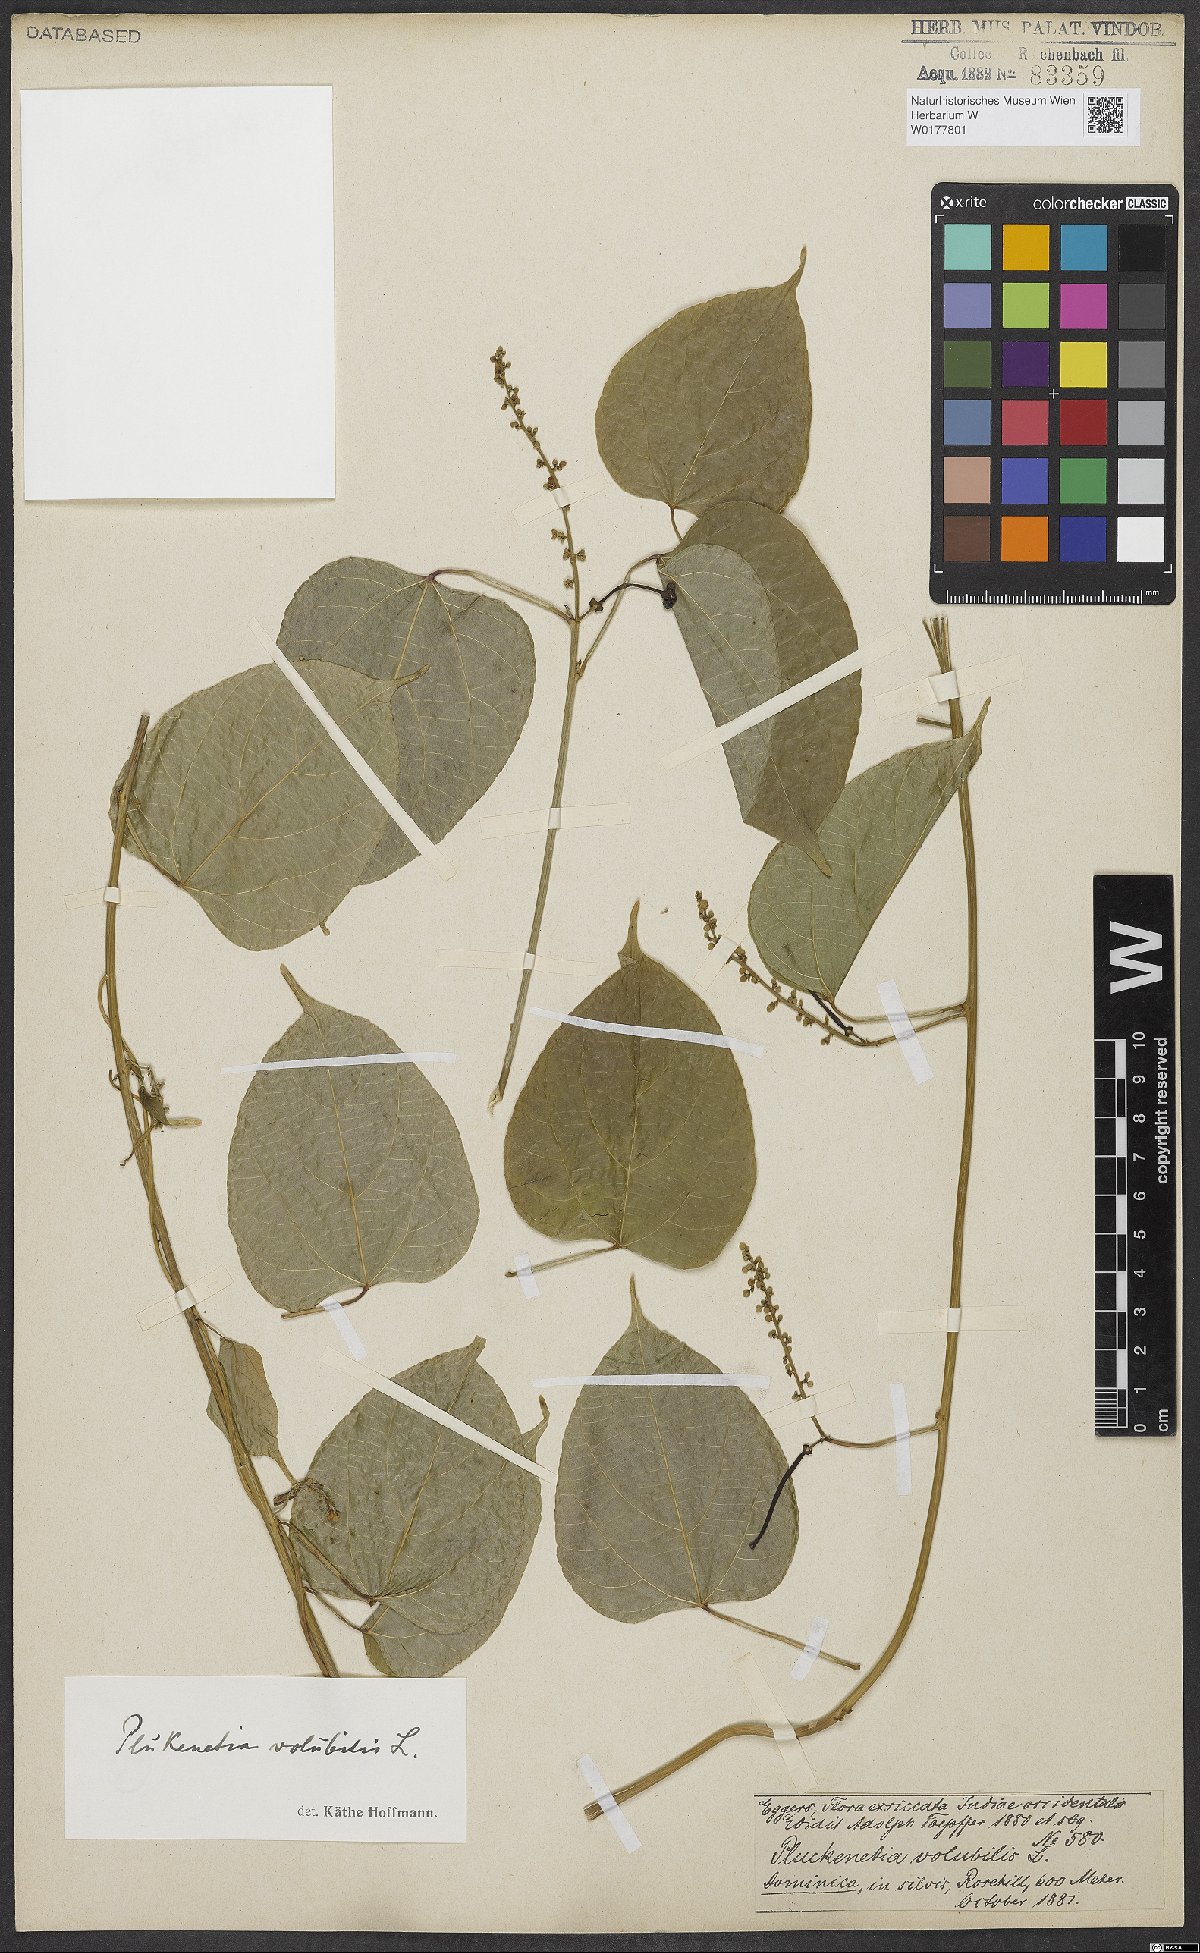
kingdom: Plantae
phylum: Tracheophyta
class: Magnoliopsida
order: Malpighiales
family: Euphorbiaceae
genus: Plukenetia
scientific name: Plukenetia volubilis
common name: Inca-peanut
